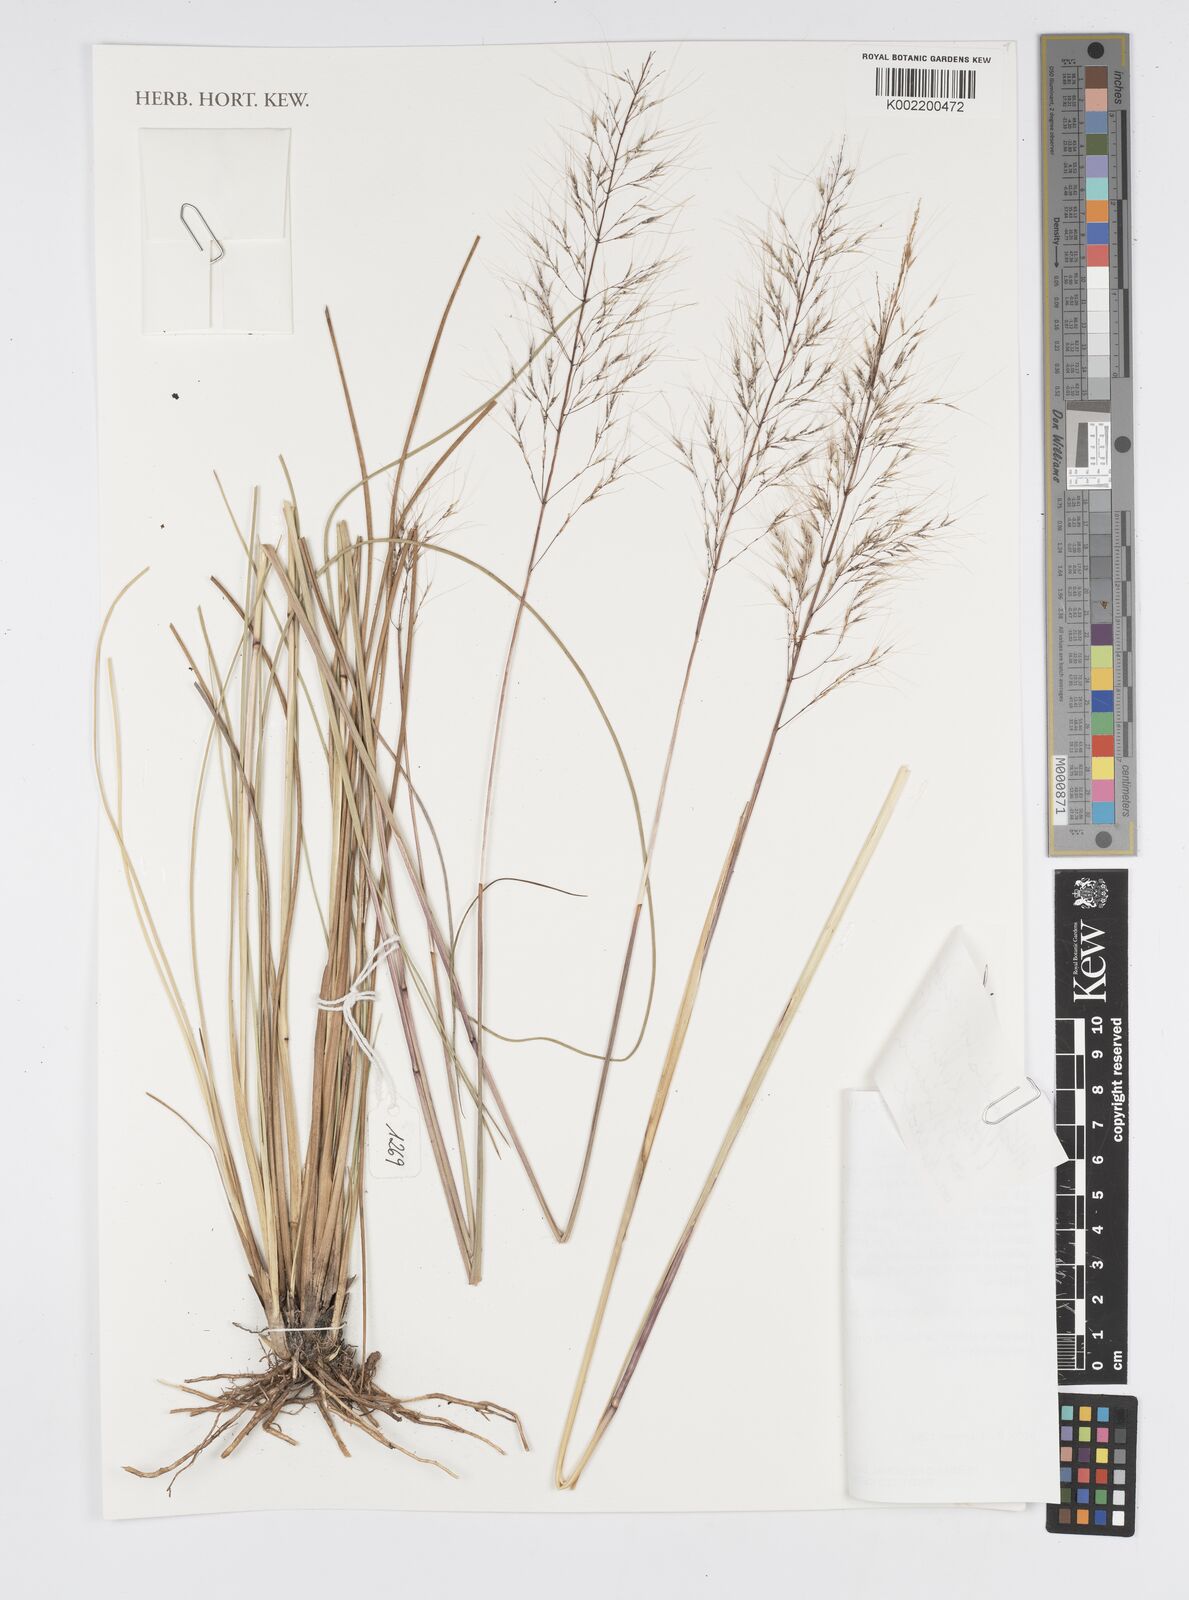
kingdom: Plantae
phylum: Tracheophyta
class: Liliopsida
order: Poales
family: Poaceae
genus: Arthropogon
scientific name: Arthropogon
